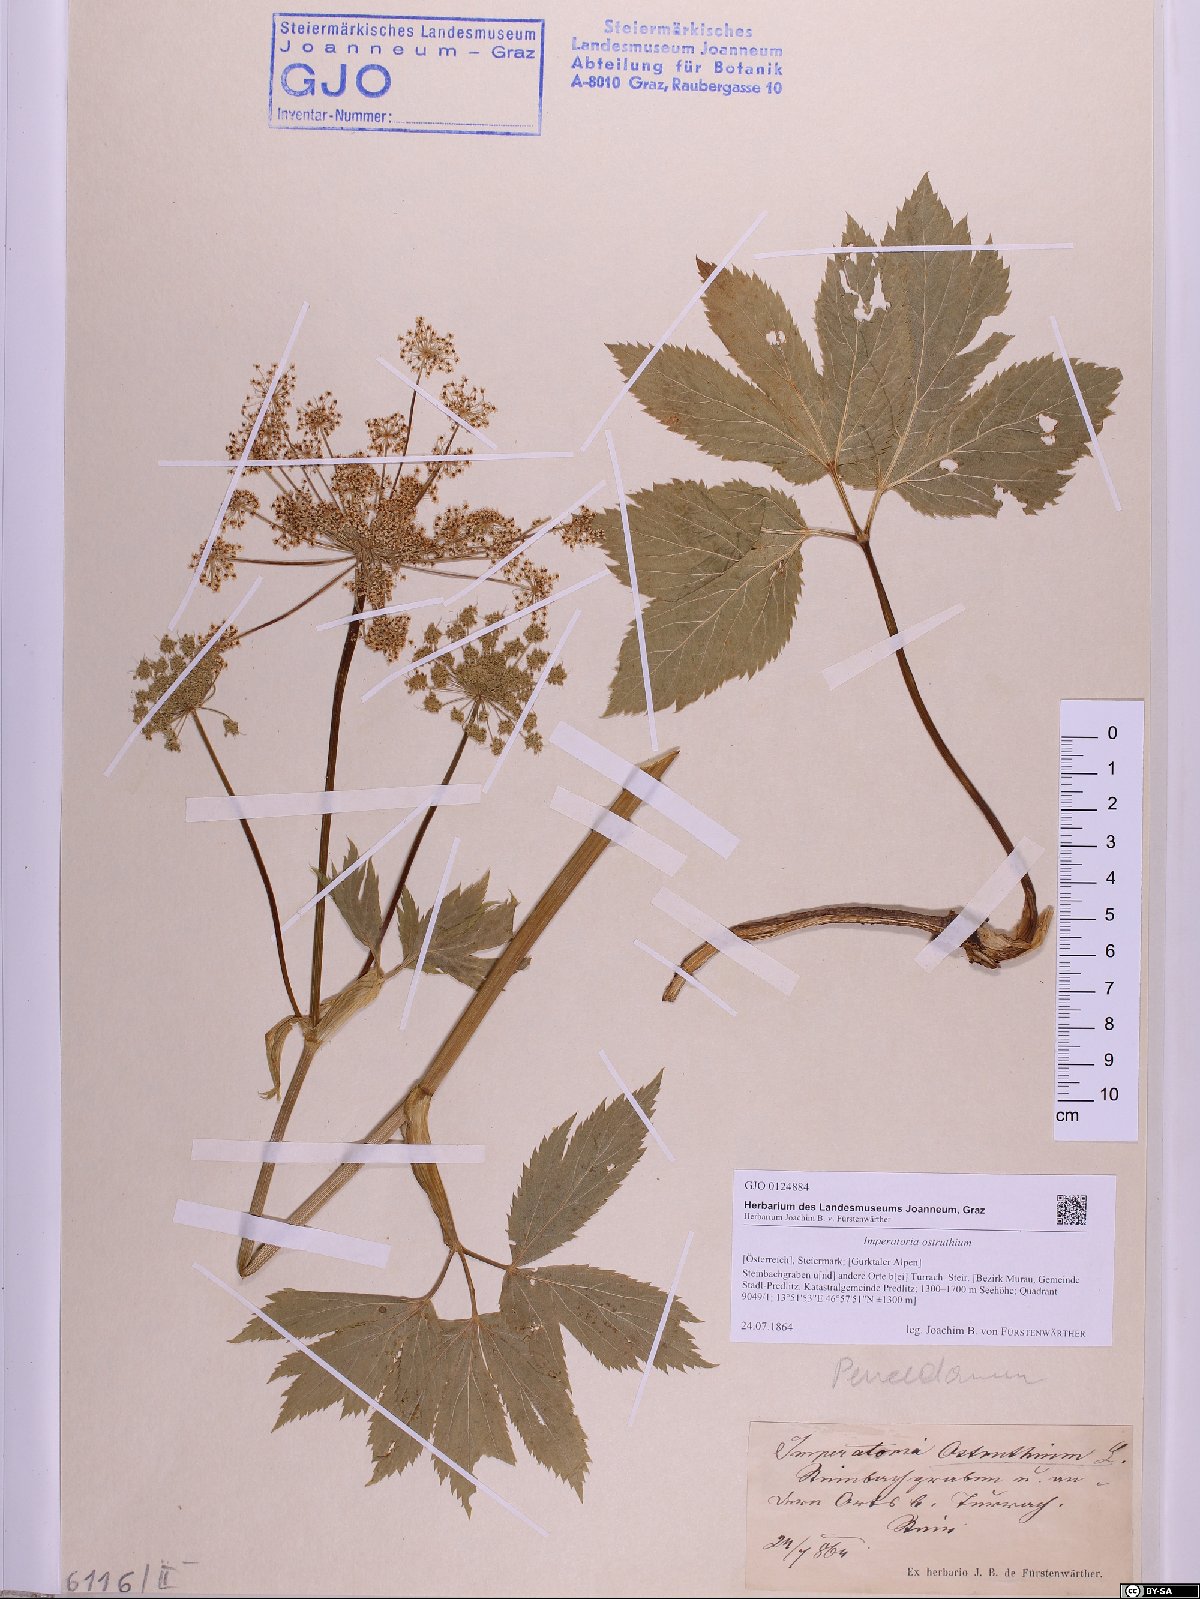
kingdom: Plantae
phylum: Tracheophyta
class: Magnoliopsida
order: Apiales
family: Apiaceae
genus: Imperatoria
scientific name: Imperatoria ostruthium
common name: Masterwort
